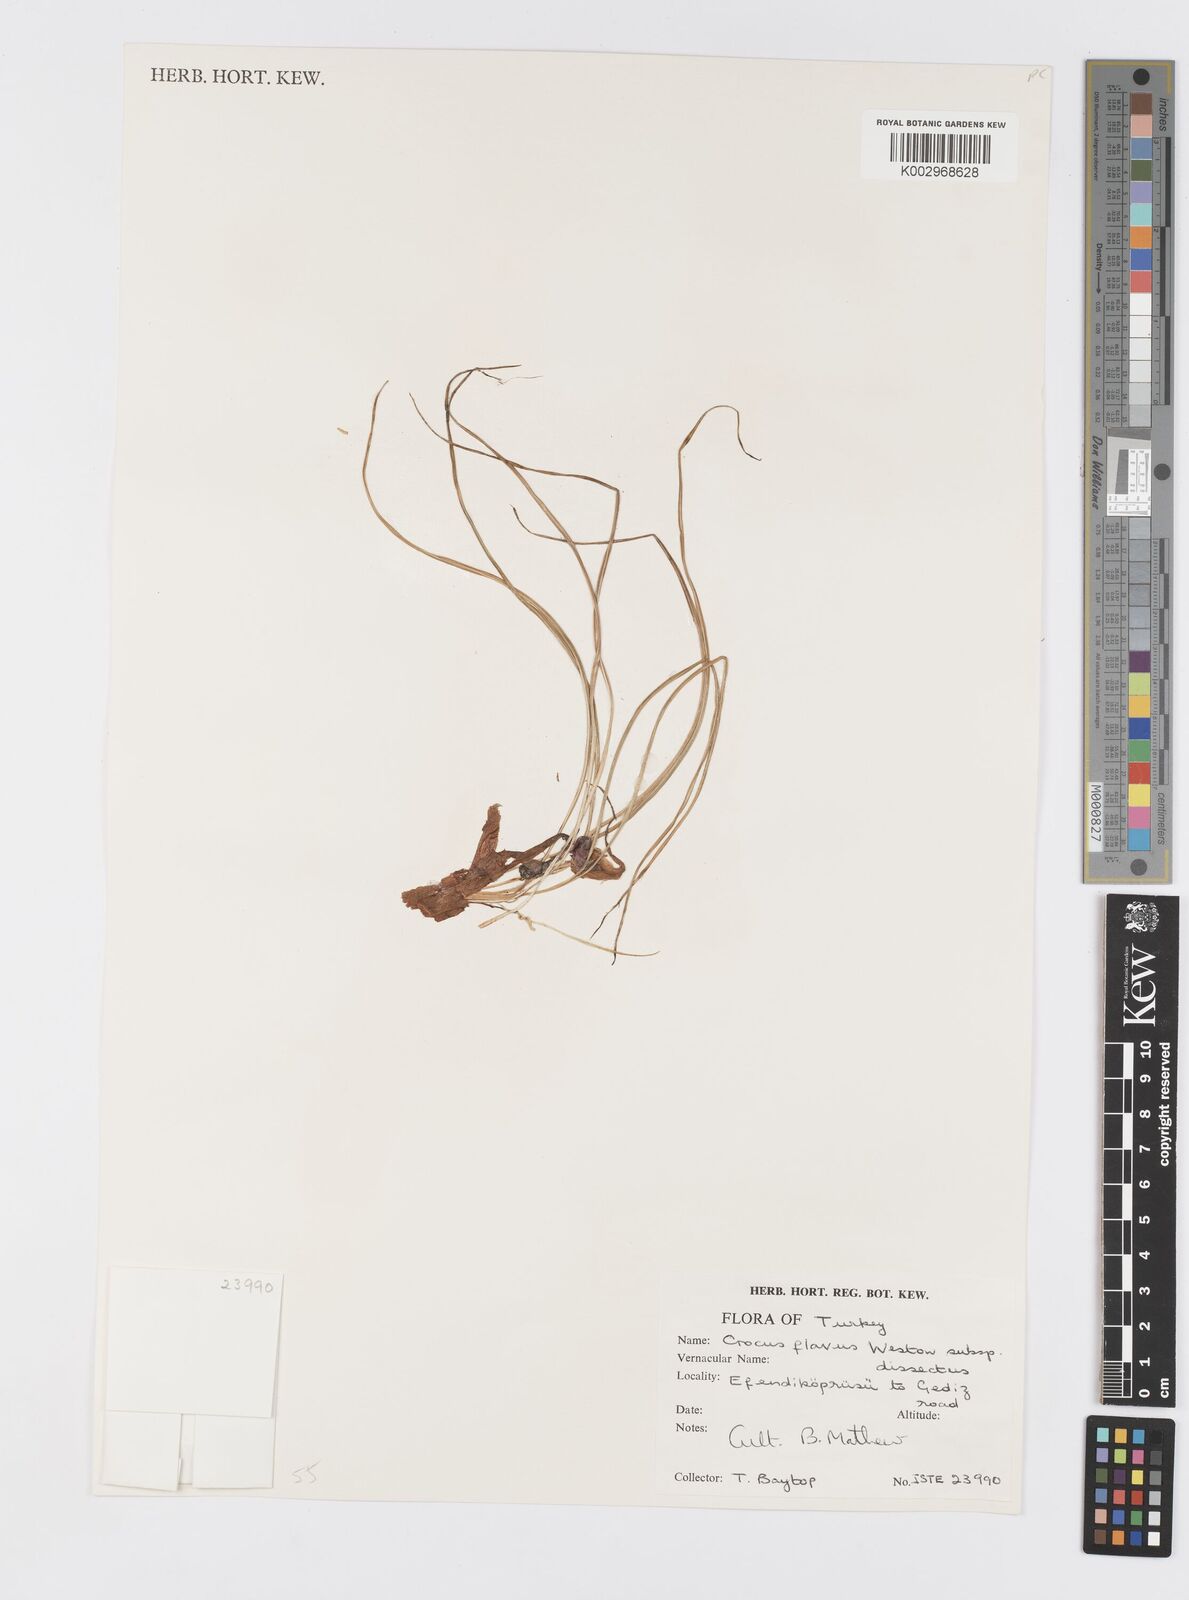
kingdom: Plantae
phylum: Tracheophyta
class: Liliopsida
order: Asparagales
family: Iridaceae
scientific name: Iridaceae
